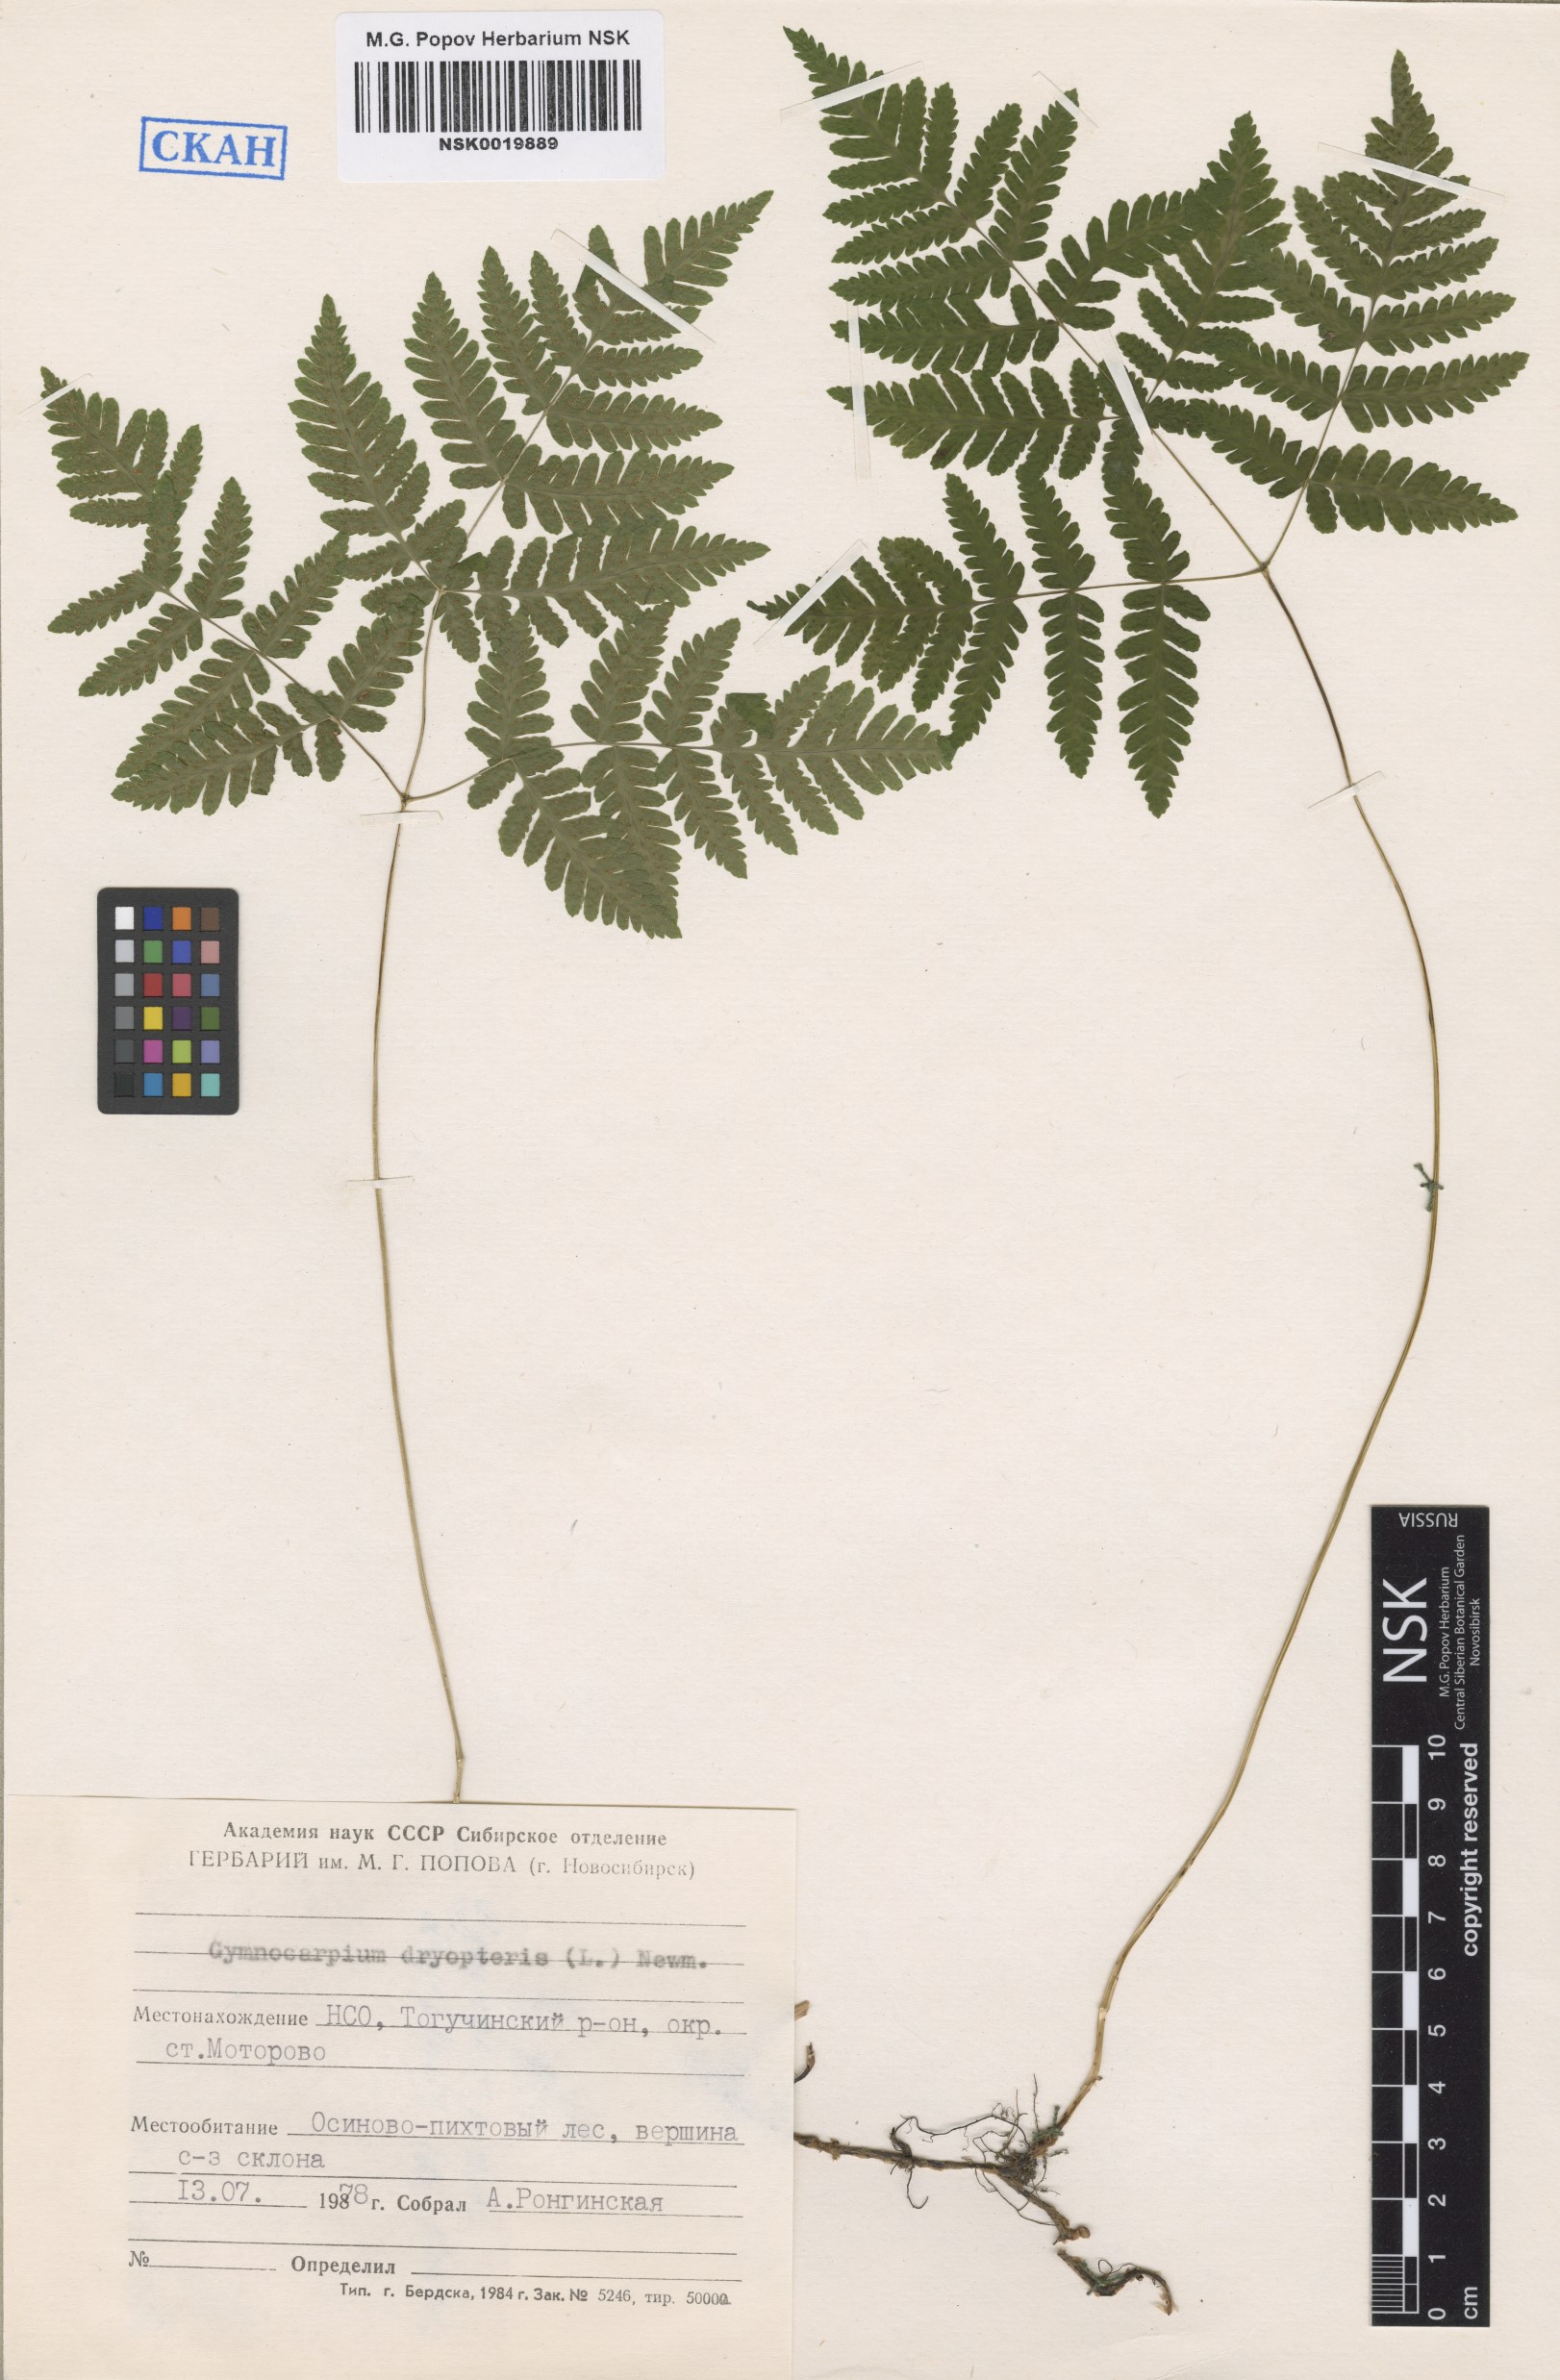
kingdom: Plantae
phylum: Tracheophyta
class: Polypodiopsida
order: Polypodiales
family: Cystopteridaceae
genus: Gymnocarpium
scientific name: Gymnocarpium dryopteris
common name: Oak fern
